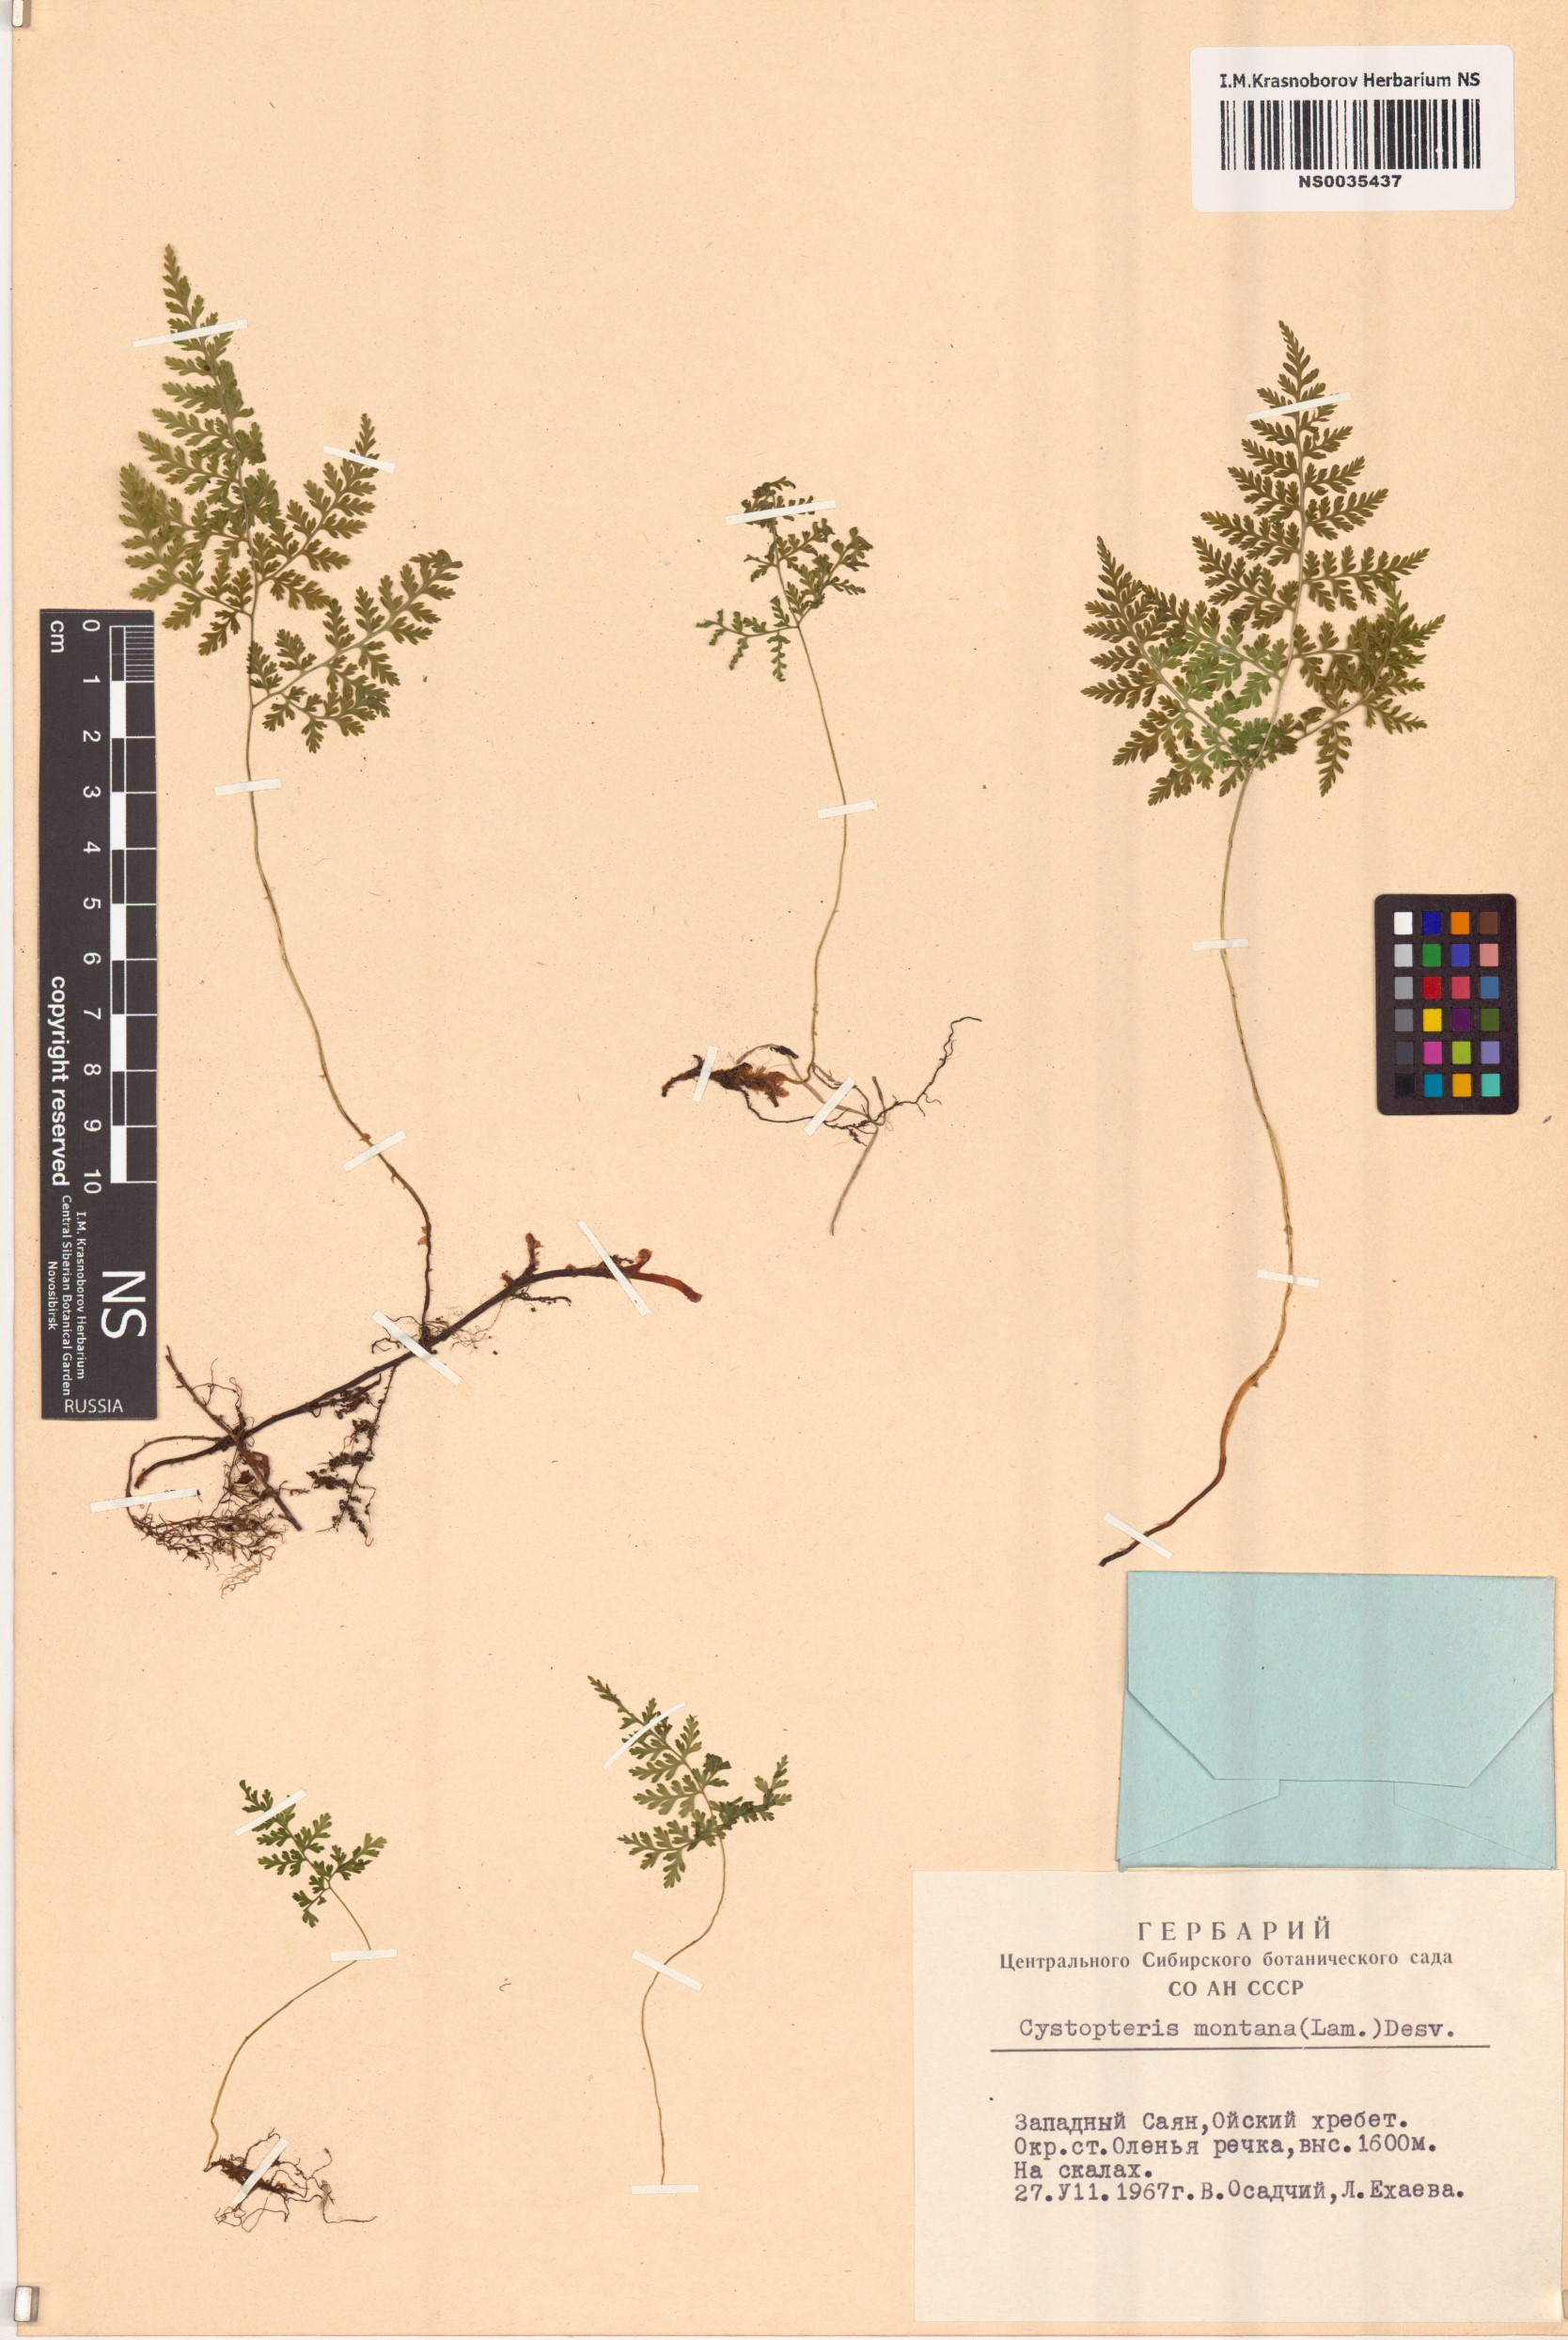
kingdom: Plantae
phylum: Tracheophyta
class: Polypodiopsida
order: Polypodiales
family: Cystopteridaceae
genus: Cystopteris
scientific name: Cystopteris montana
